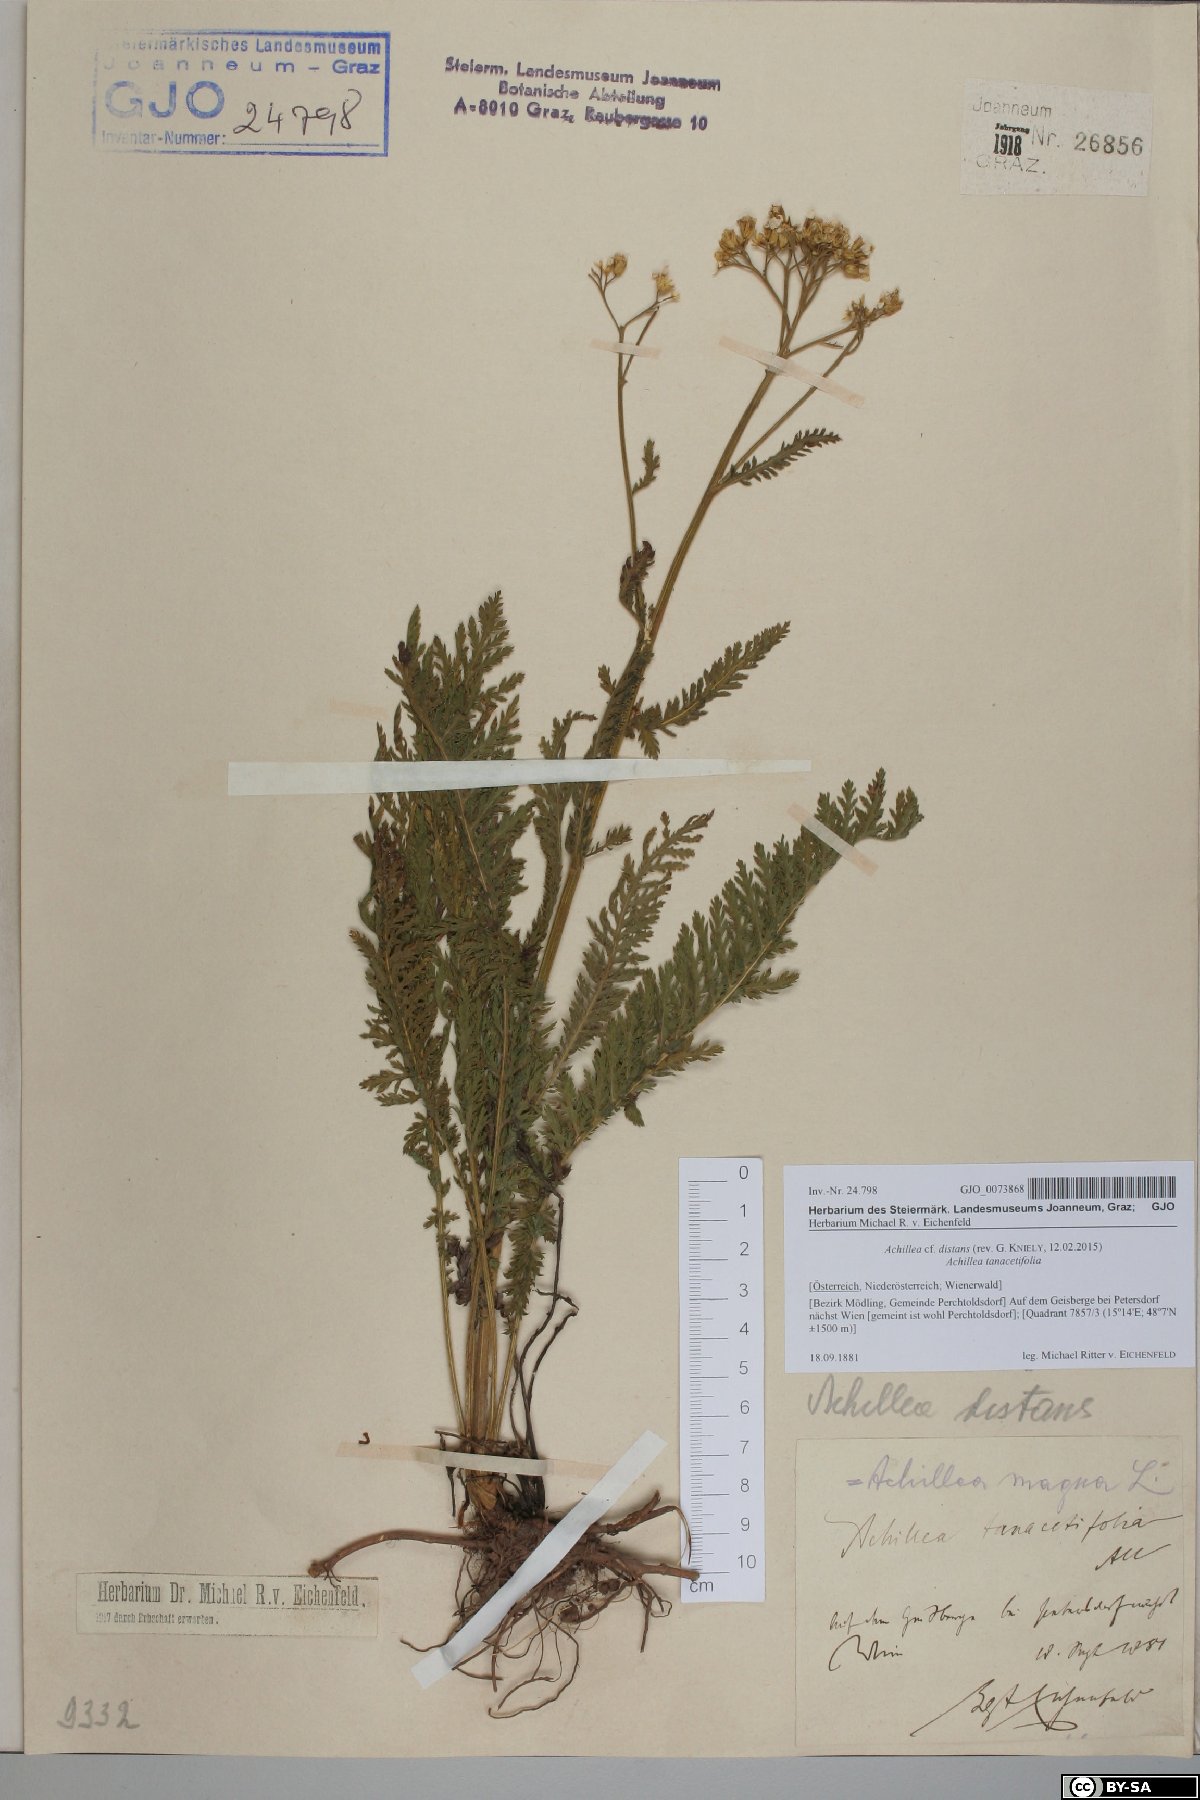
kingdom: Plantae
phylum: Tracheophyta
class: Magnoliopsida
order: Asterales
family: Asteraceae
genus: Achillea
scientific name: Achillea distans
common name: Tall yarrow
